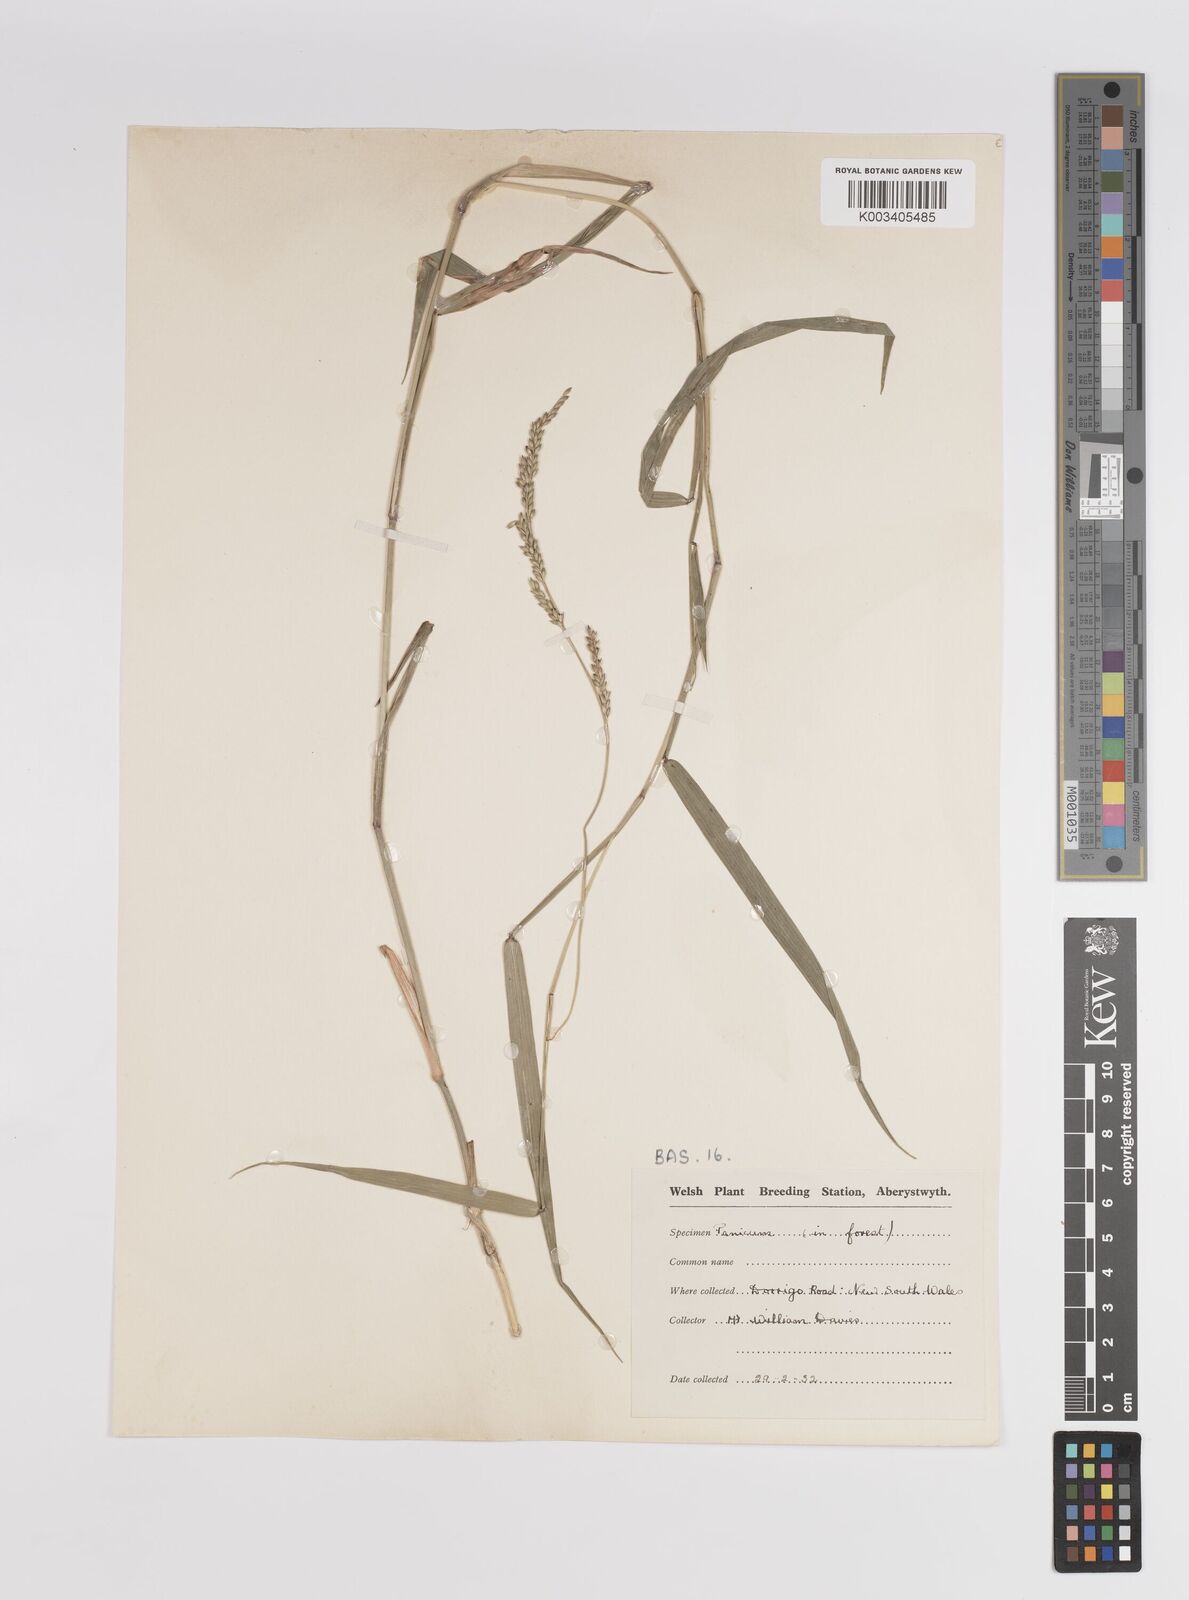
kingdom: Plantae
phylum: Tracheophyta
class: Liliopsida
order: Poales
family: Poaceae
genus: Panicum
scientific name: Panicum
